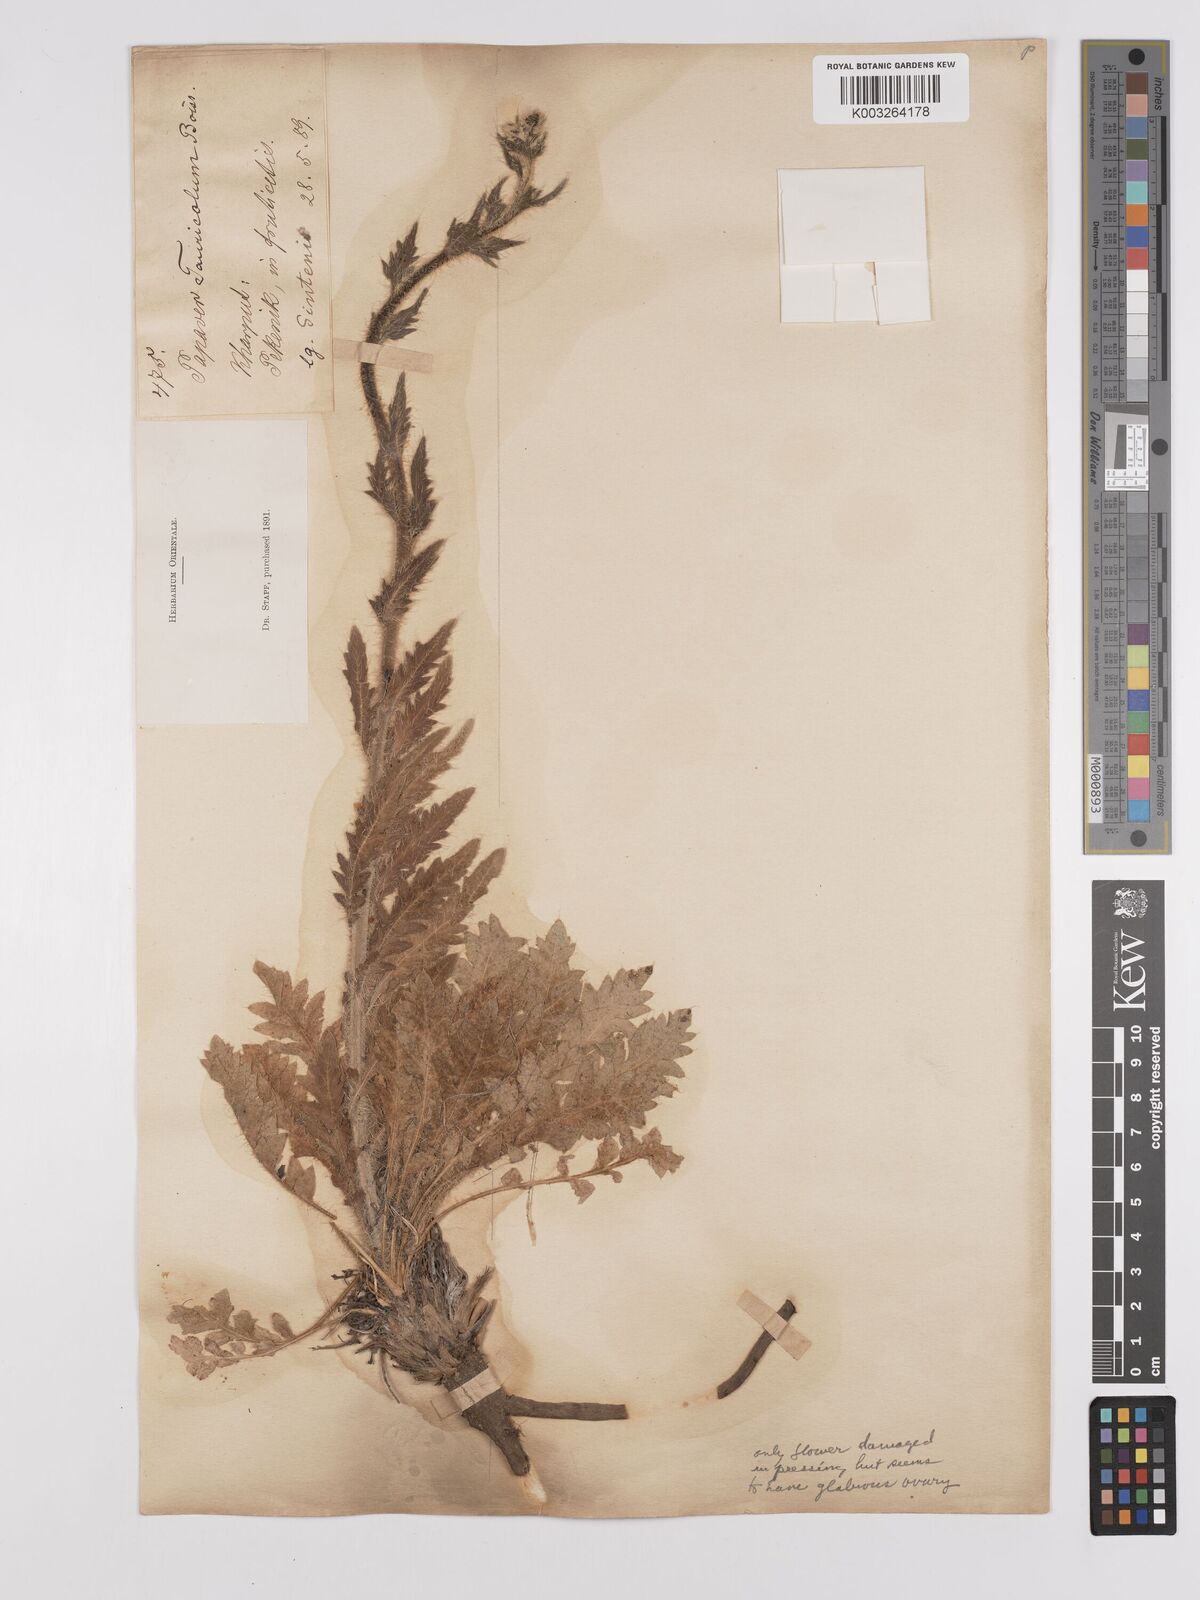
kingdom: Plantae
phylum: Tracheophyta
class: Magnoliopsida
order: Ranunculales
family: Papaveraceae
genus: Papaver
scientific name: Papaver armeniacum
